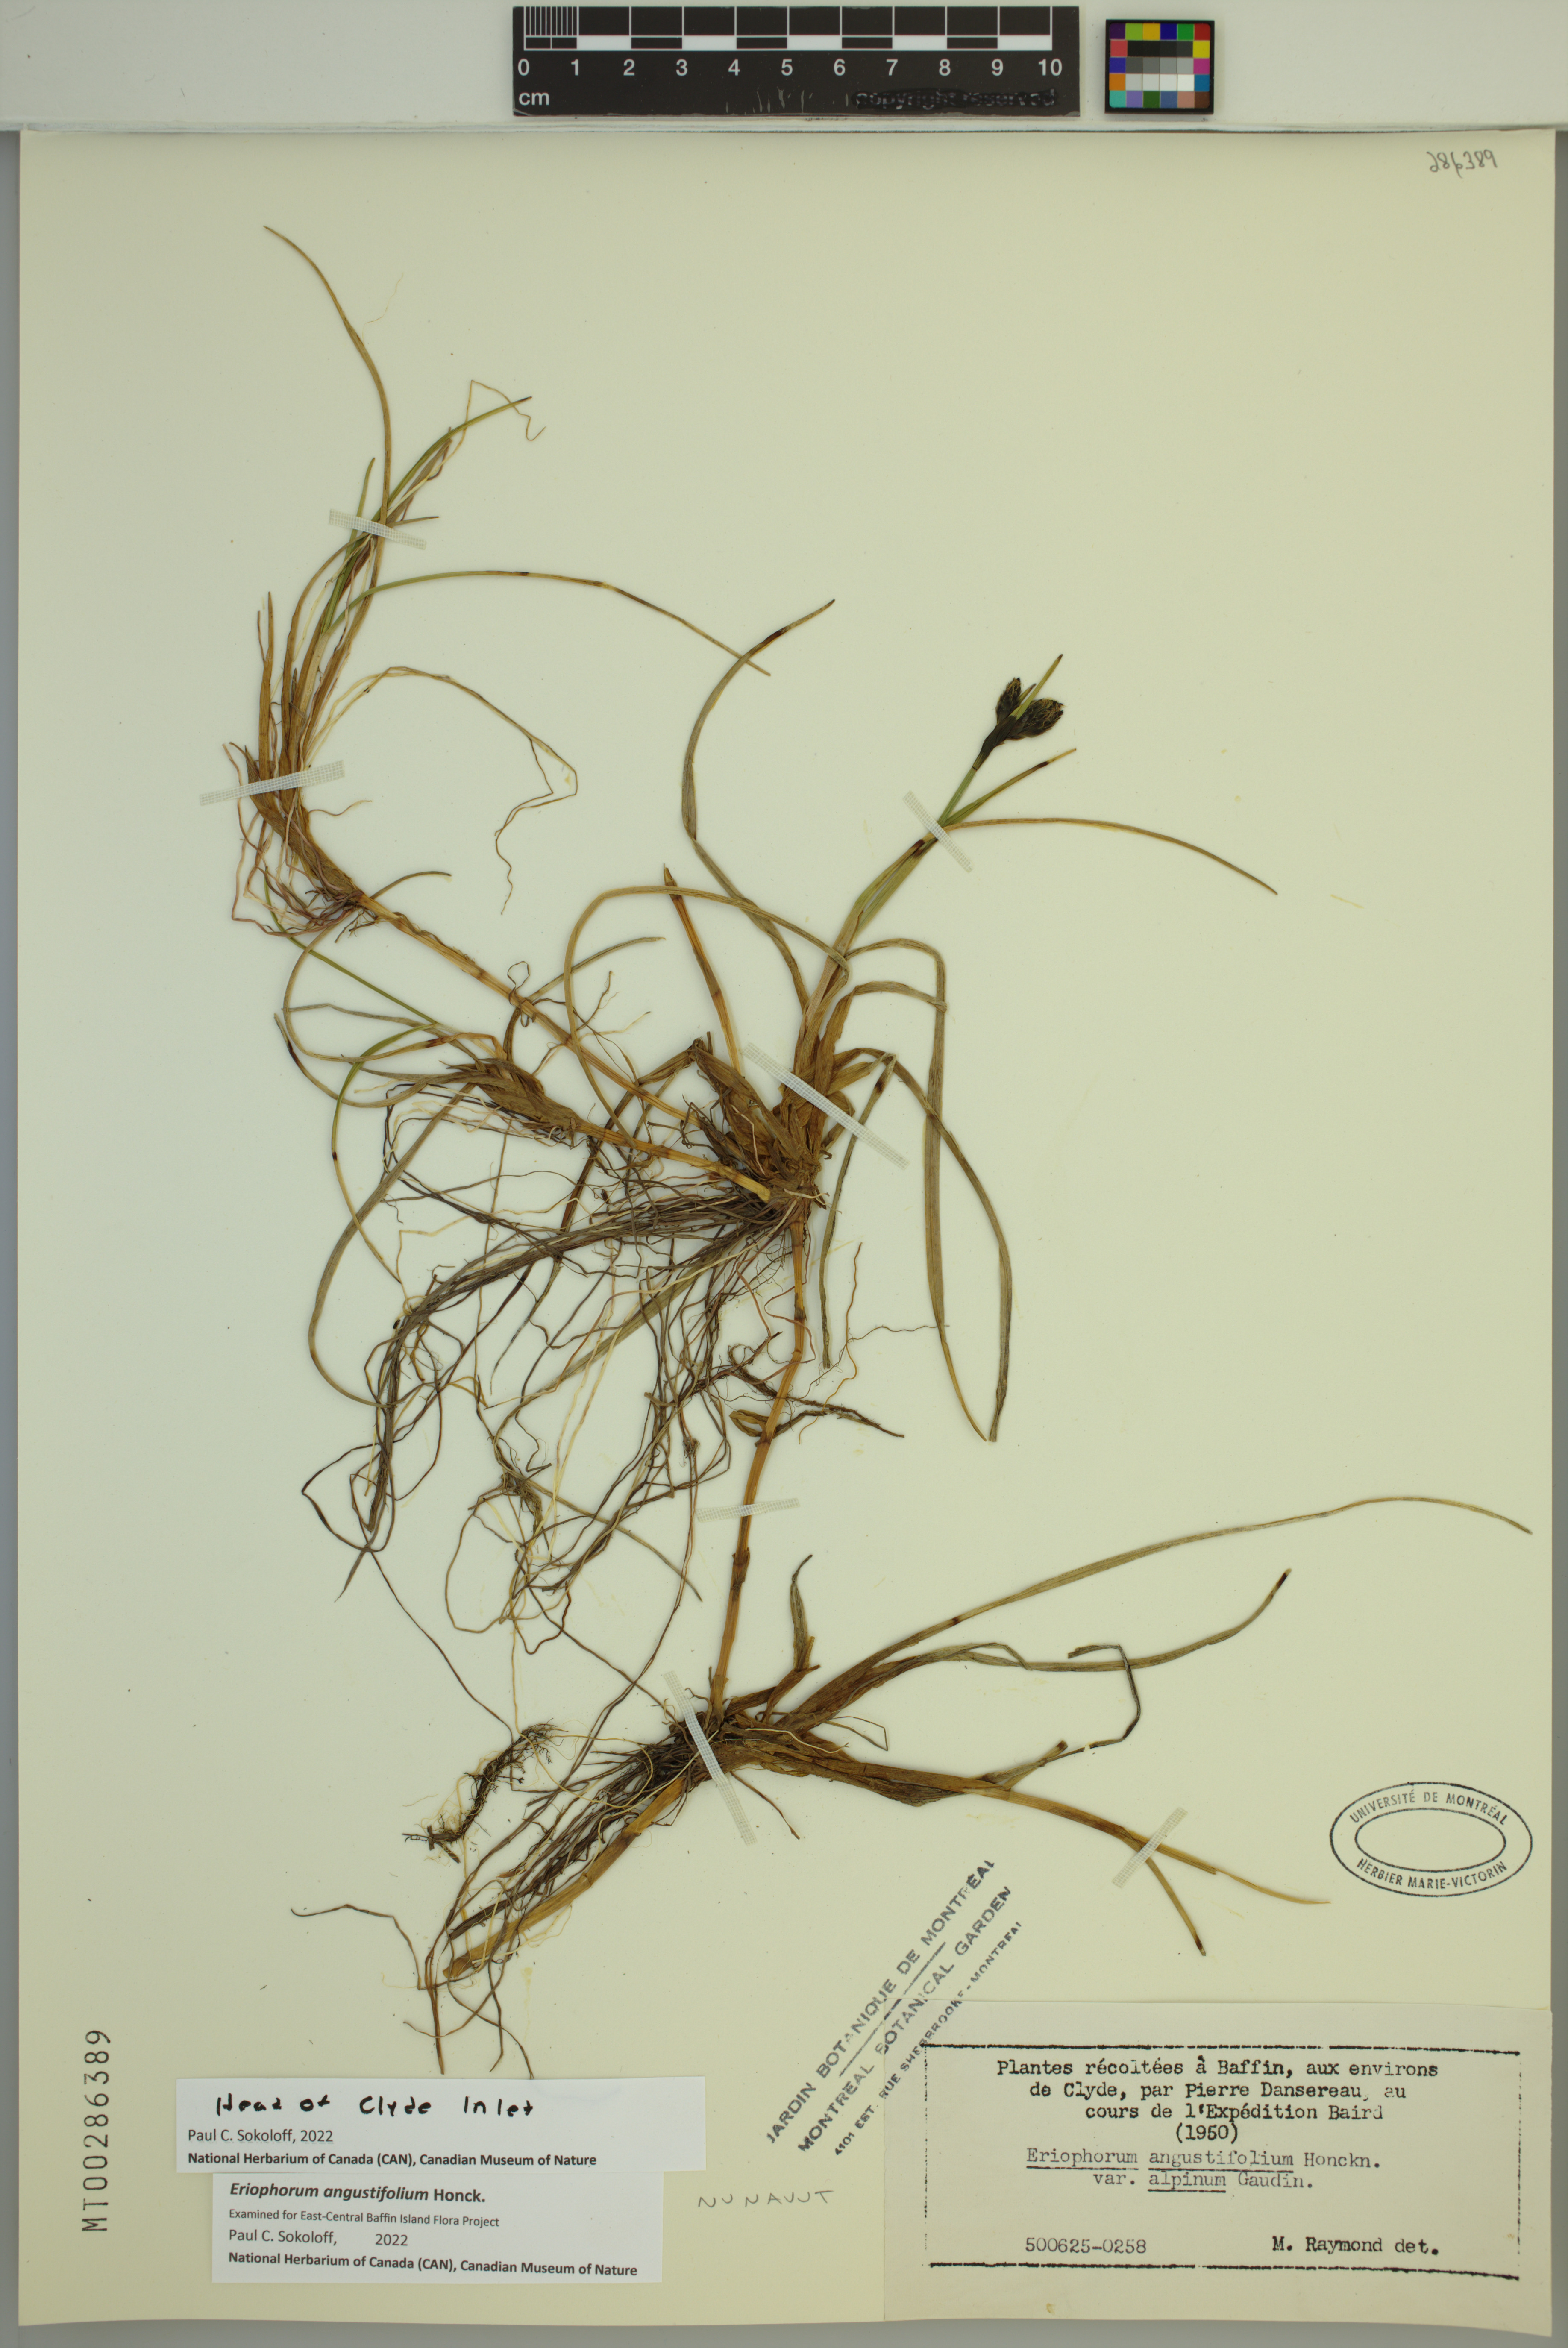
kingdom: Plantae
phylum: Tracheophyta
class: Liliopsida
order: Poales
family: Cyperaceae
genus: Eriophorum
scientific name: Eriophorum angustifolium
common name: Common cottongrass
